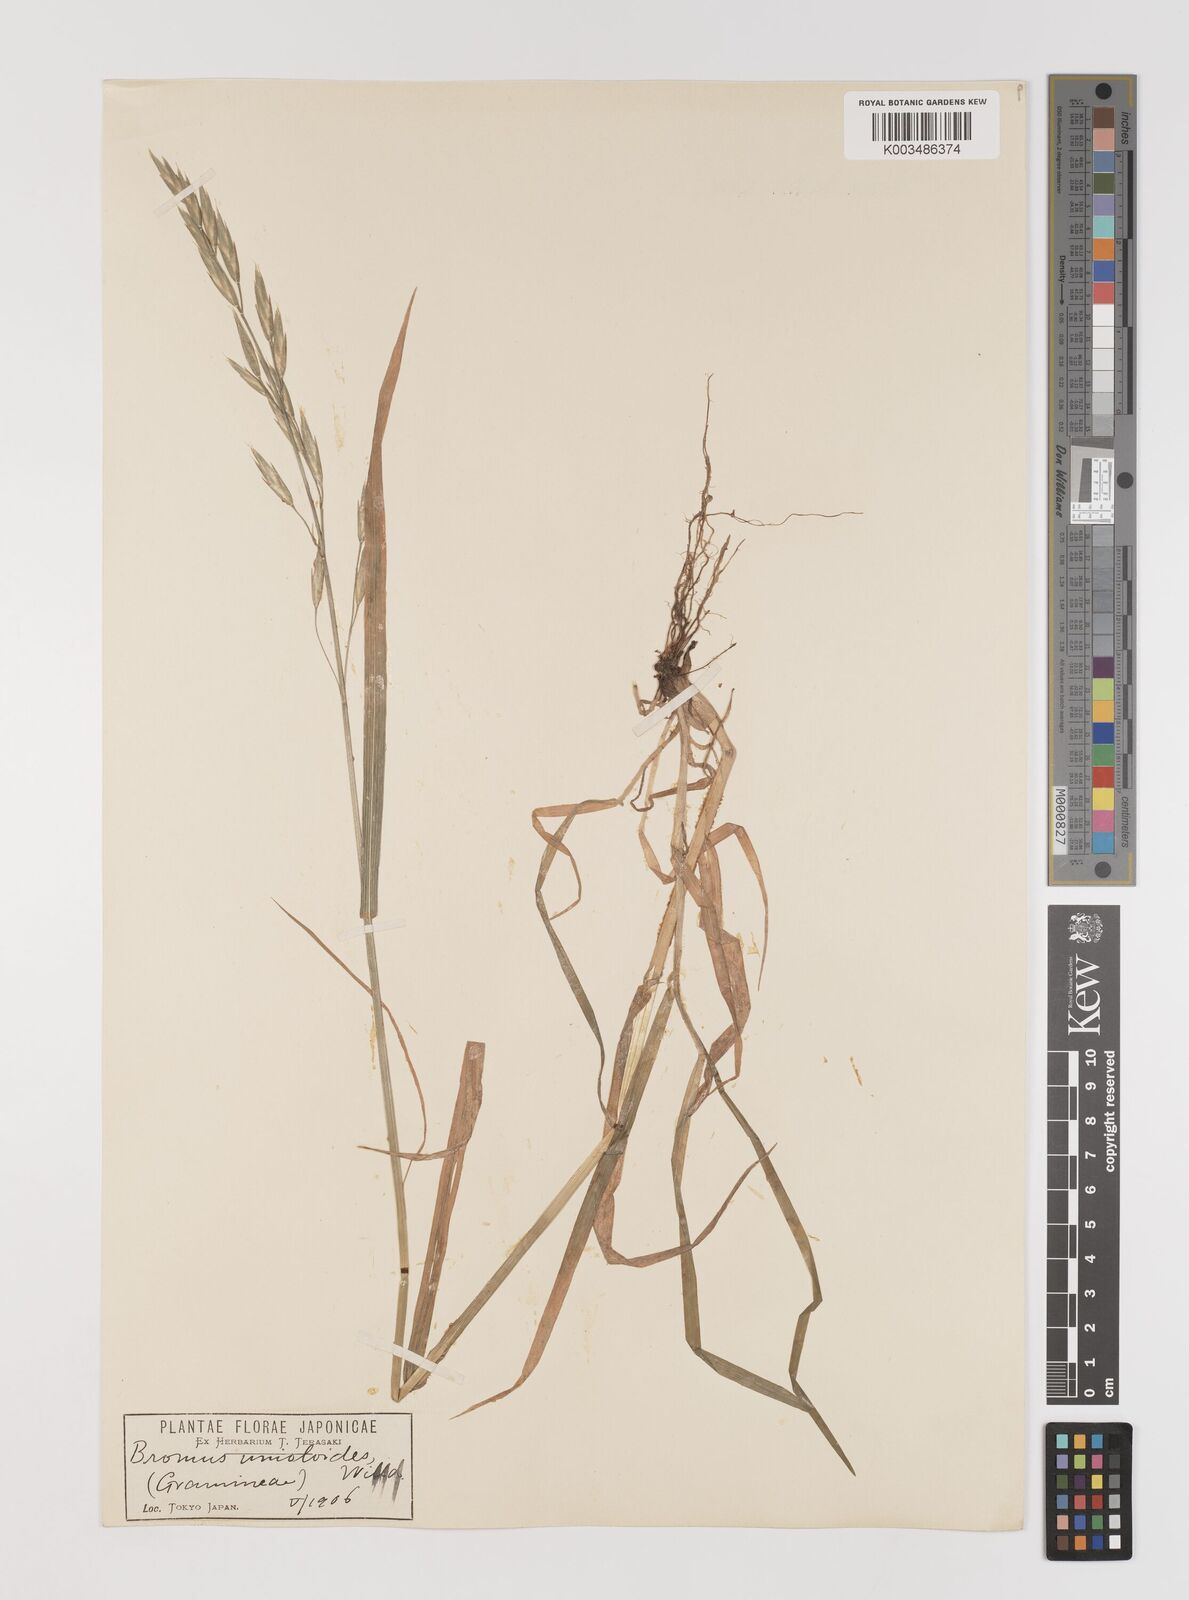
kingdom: Plantae
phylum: Tracheophyta
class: Liliopsida
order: Poales
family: Poaceae
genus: Bromus
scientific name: Bromus catharticus
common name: Rescuegrass
